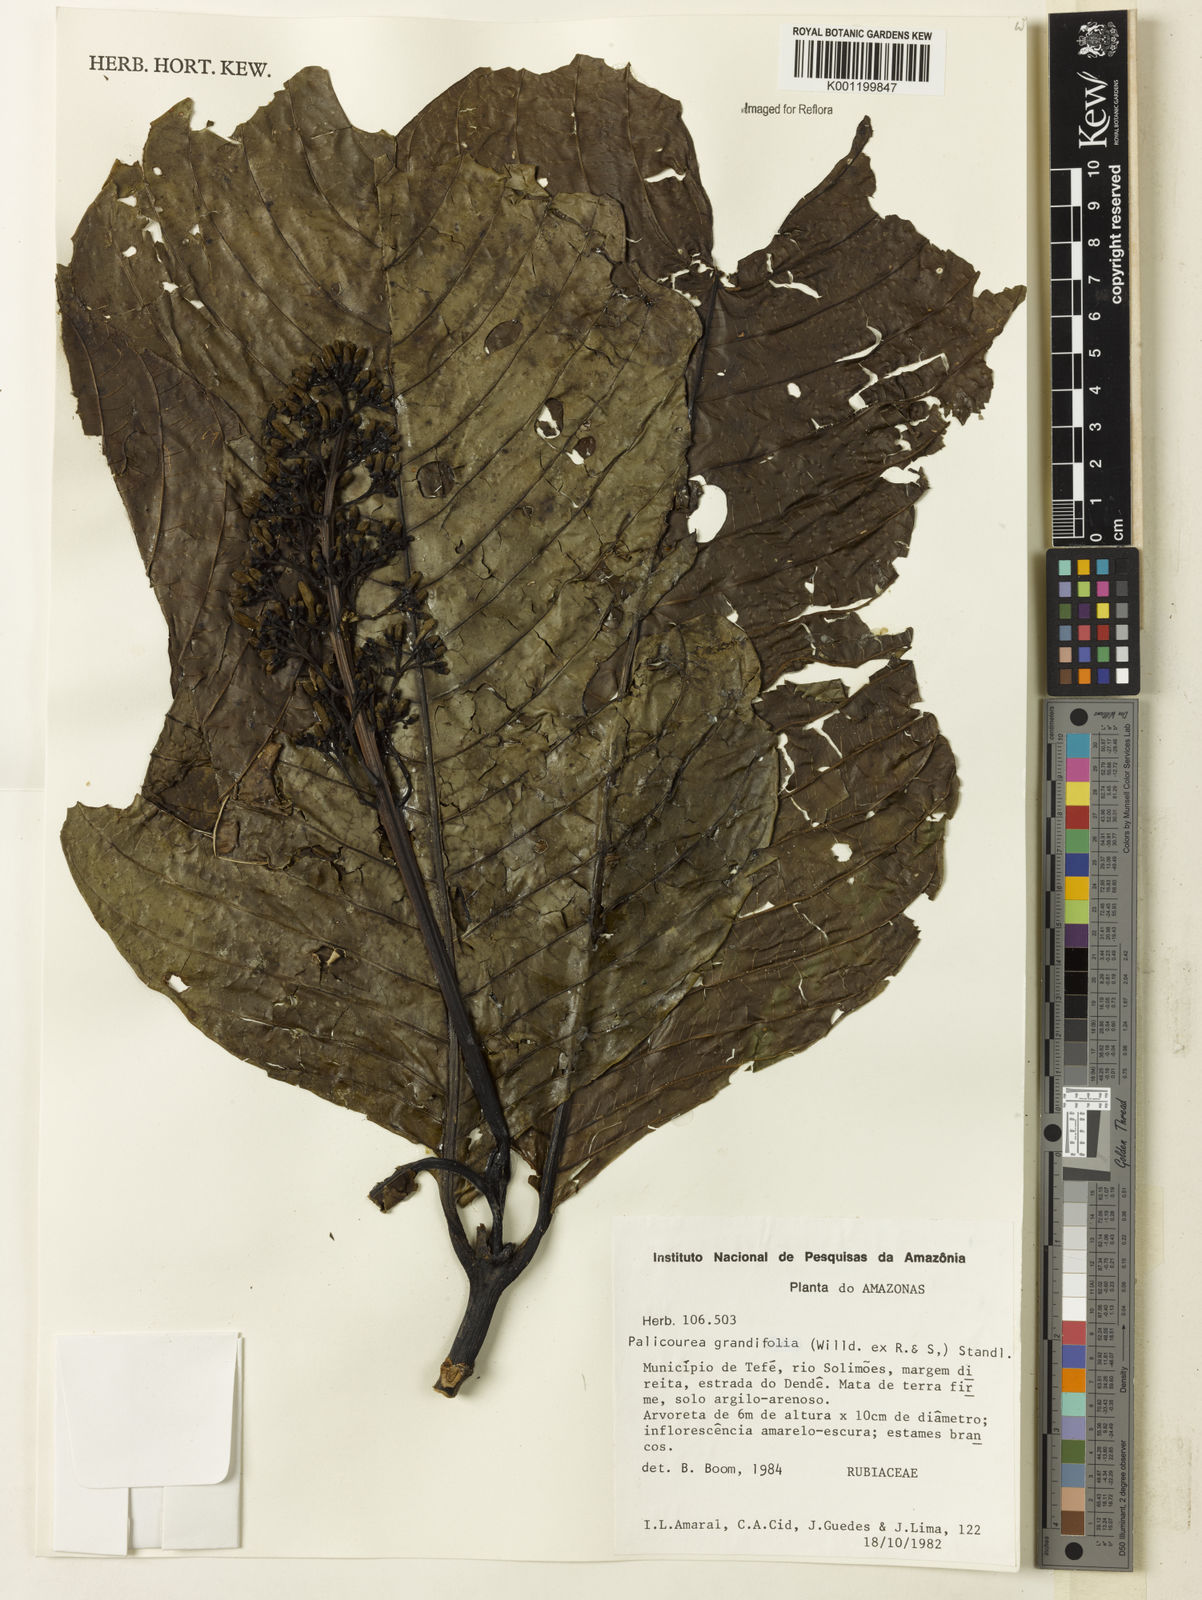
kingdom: Plantae
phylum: Tracheophyta
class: Magnoliopsida
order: Gentianales
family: Rubiaceae
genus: Palicourea
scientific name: Palicourea grandifolia
